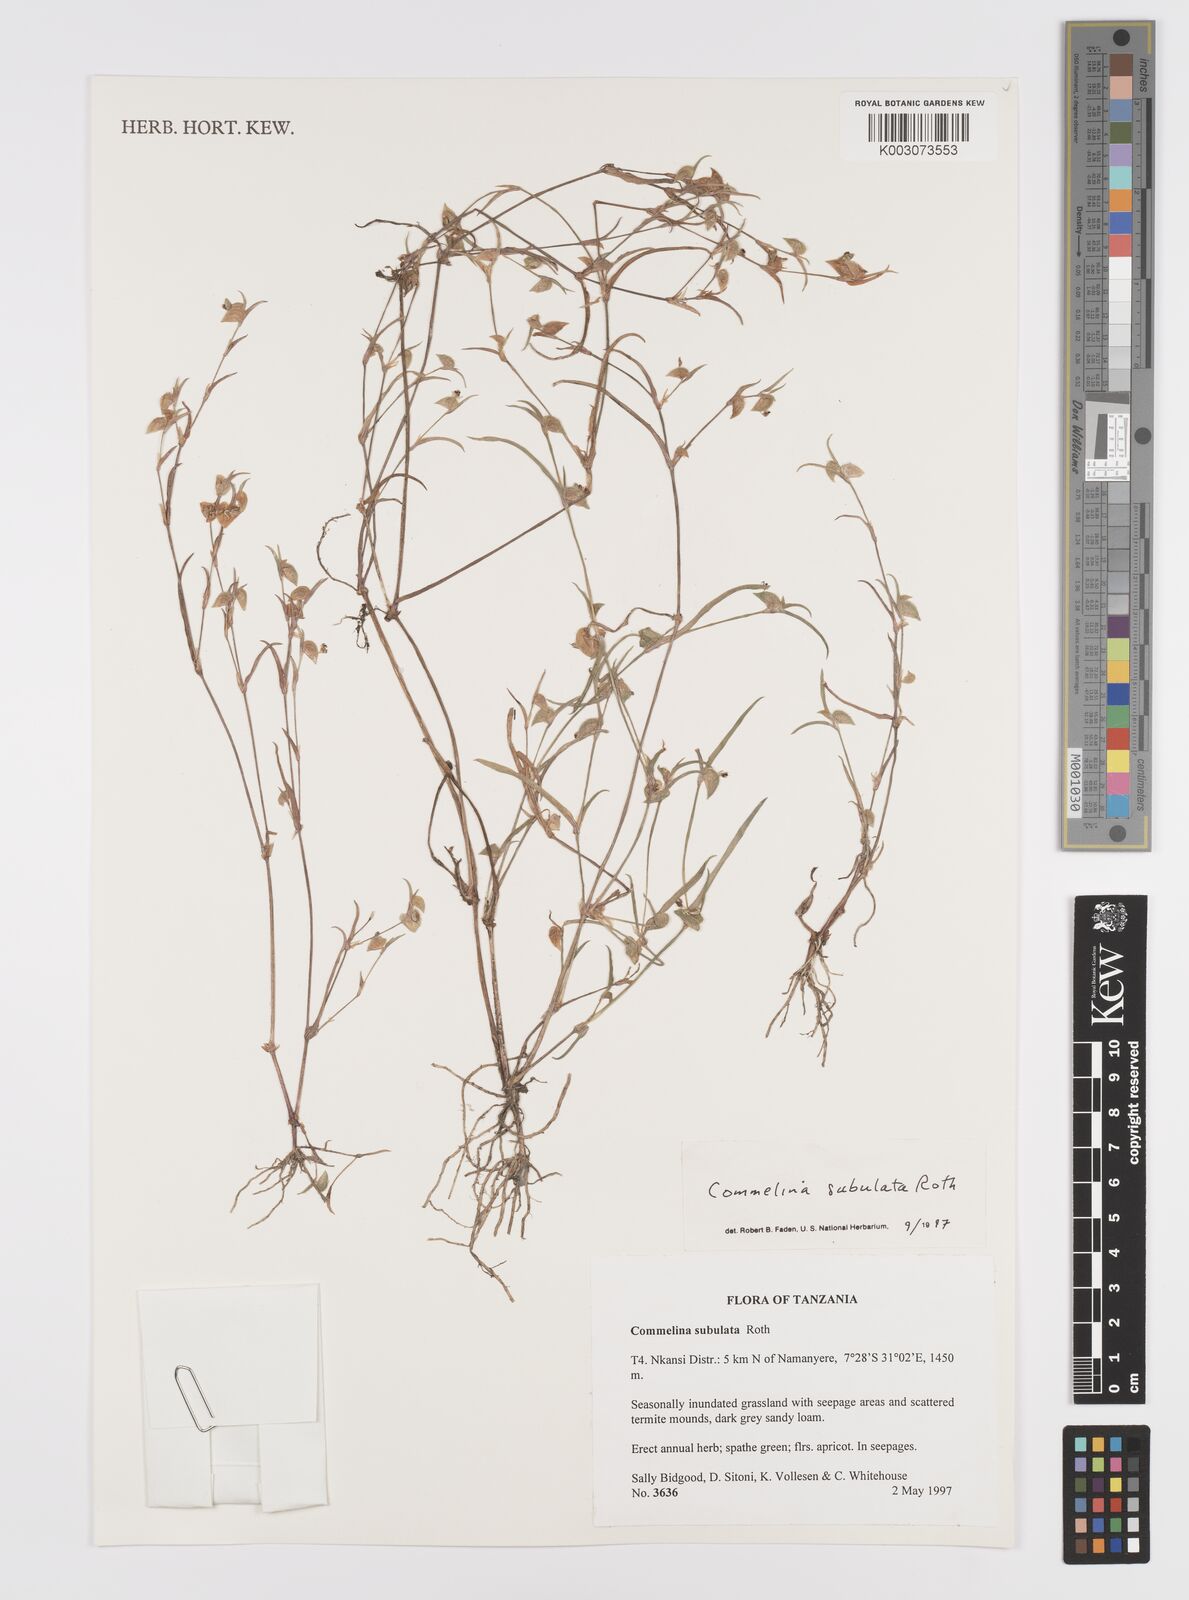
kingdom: Plantae
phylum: Tracheophyta
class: Liliopsida
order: Commelinales
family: Commelinaceae
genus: Commelina
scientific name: Commelina subulata
